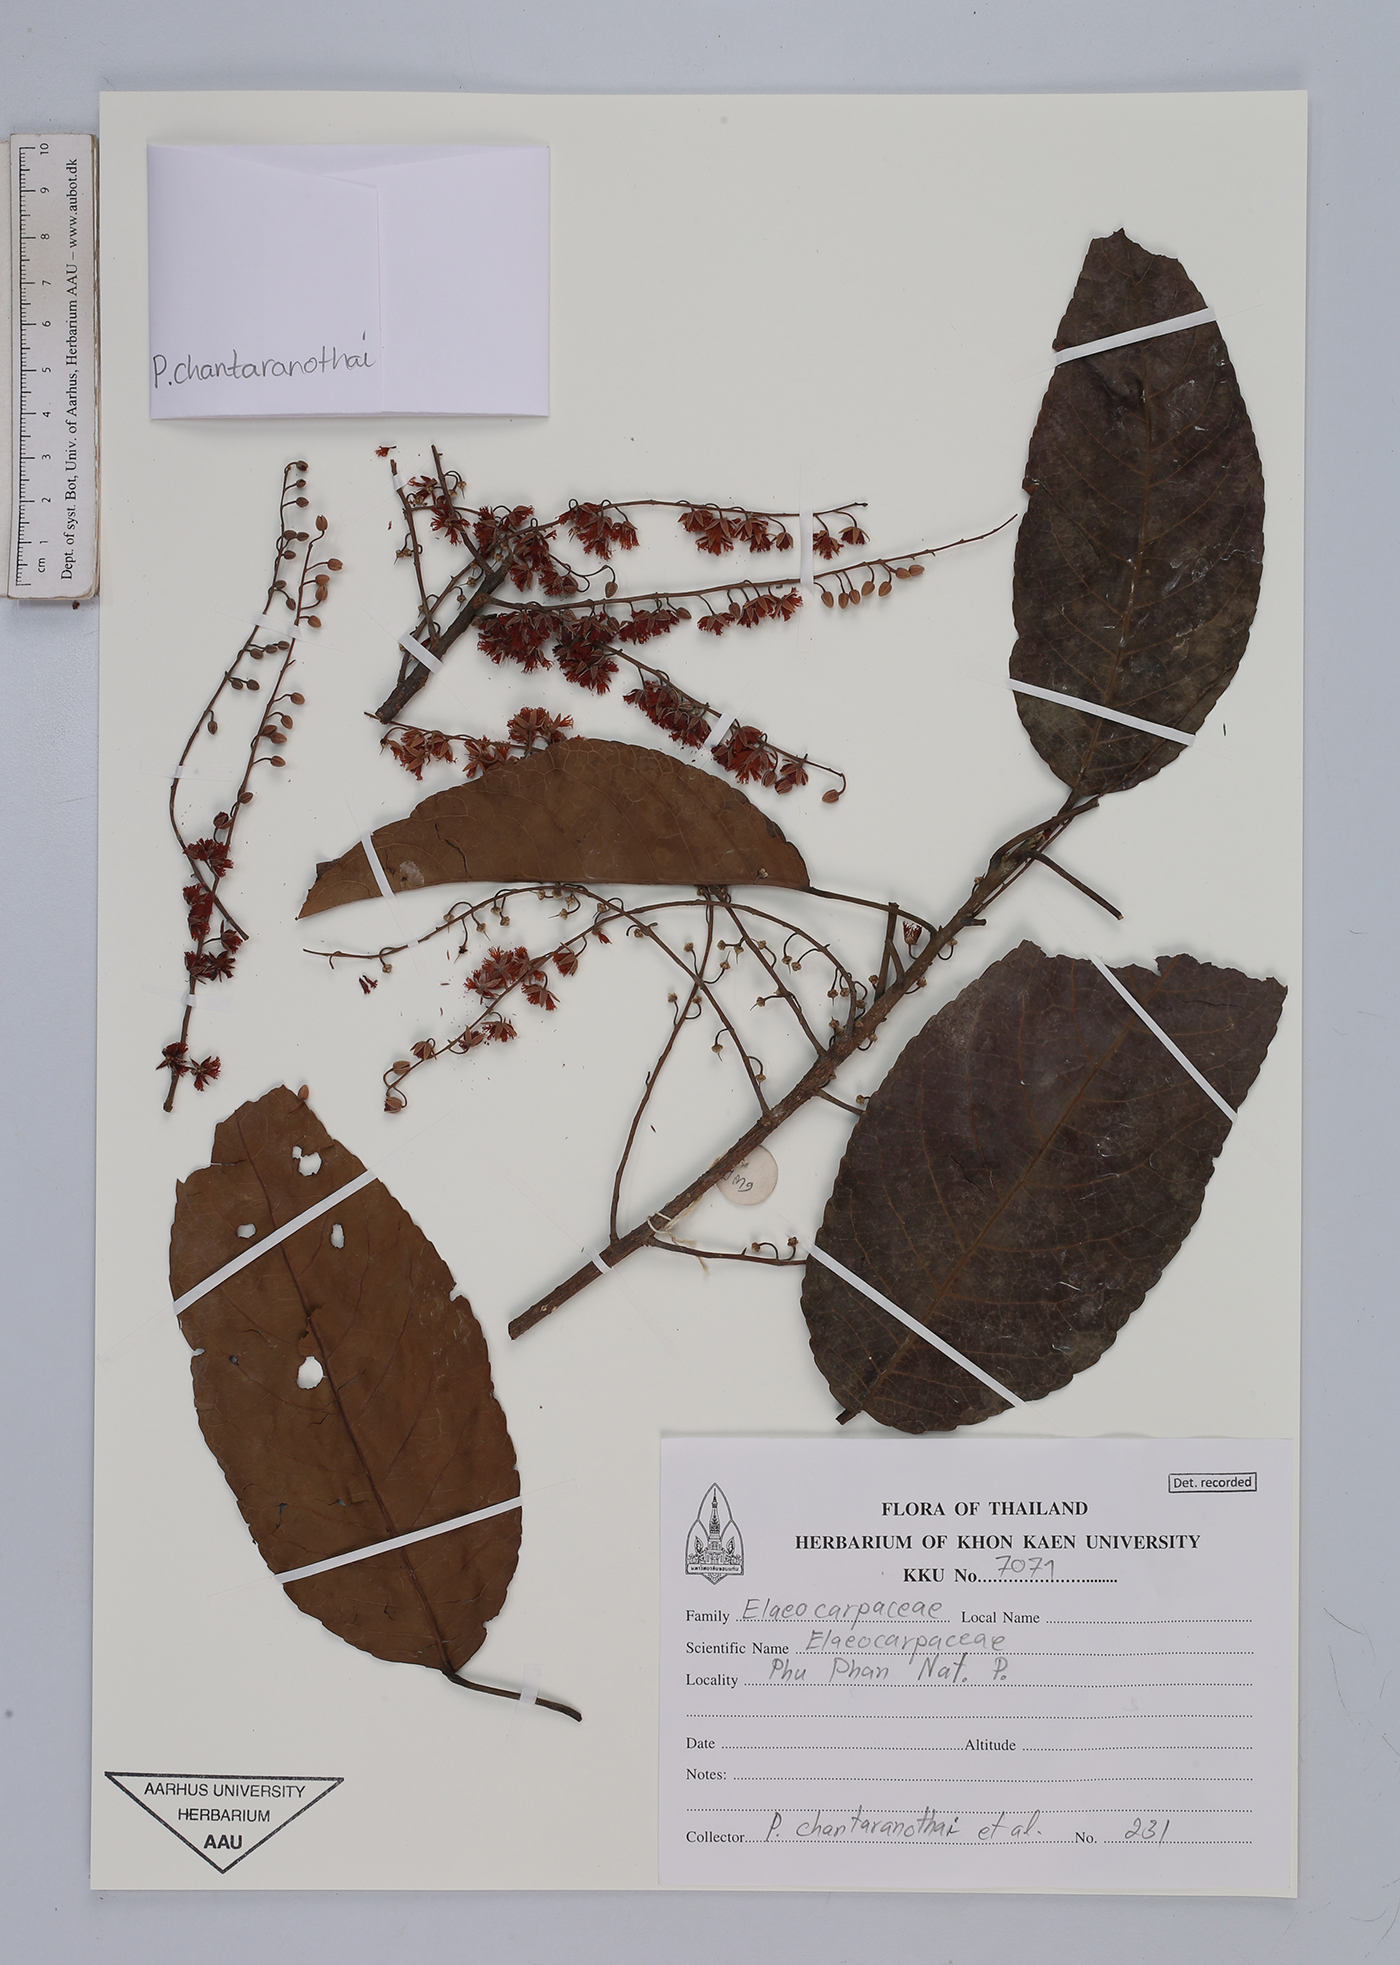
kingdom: Plantae
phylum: Tracheophyta
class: Magnoliopsida
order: Oxalidales
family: Elaeocarpaceae
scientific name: Elaeocarpaceae
